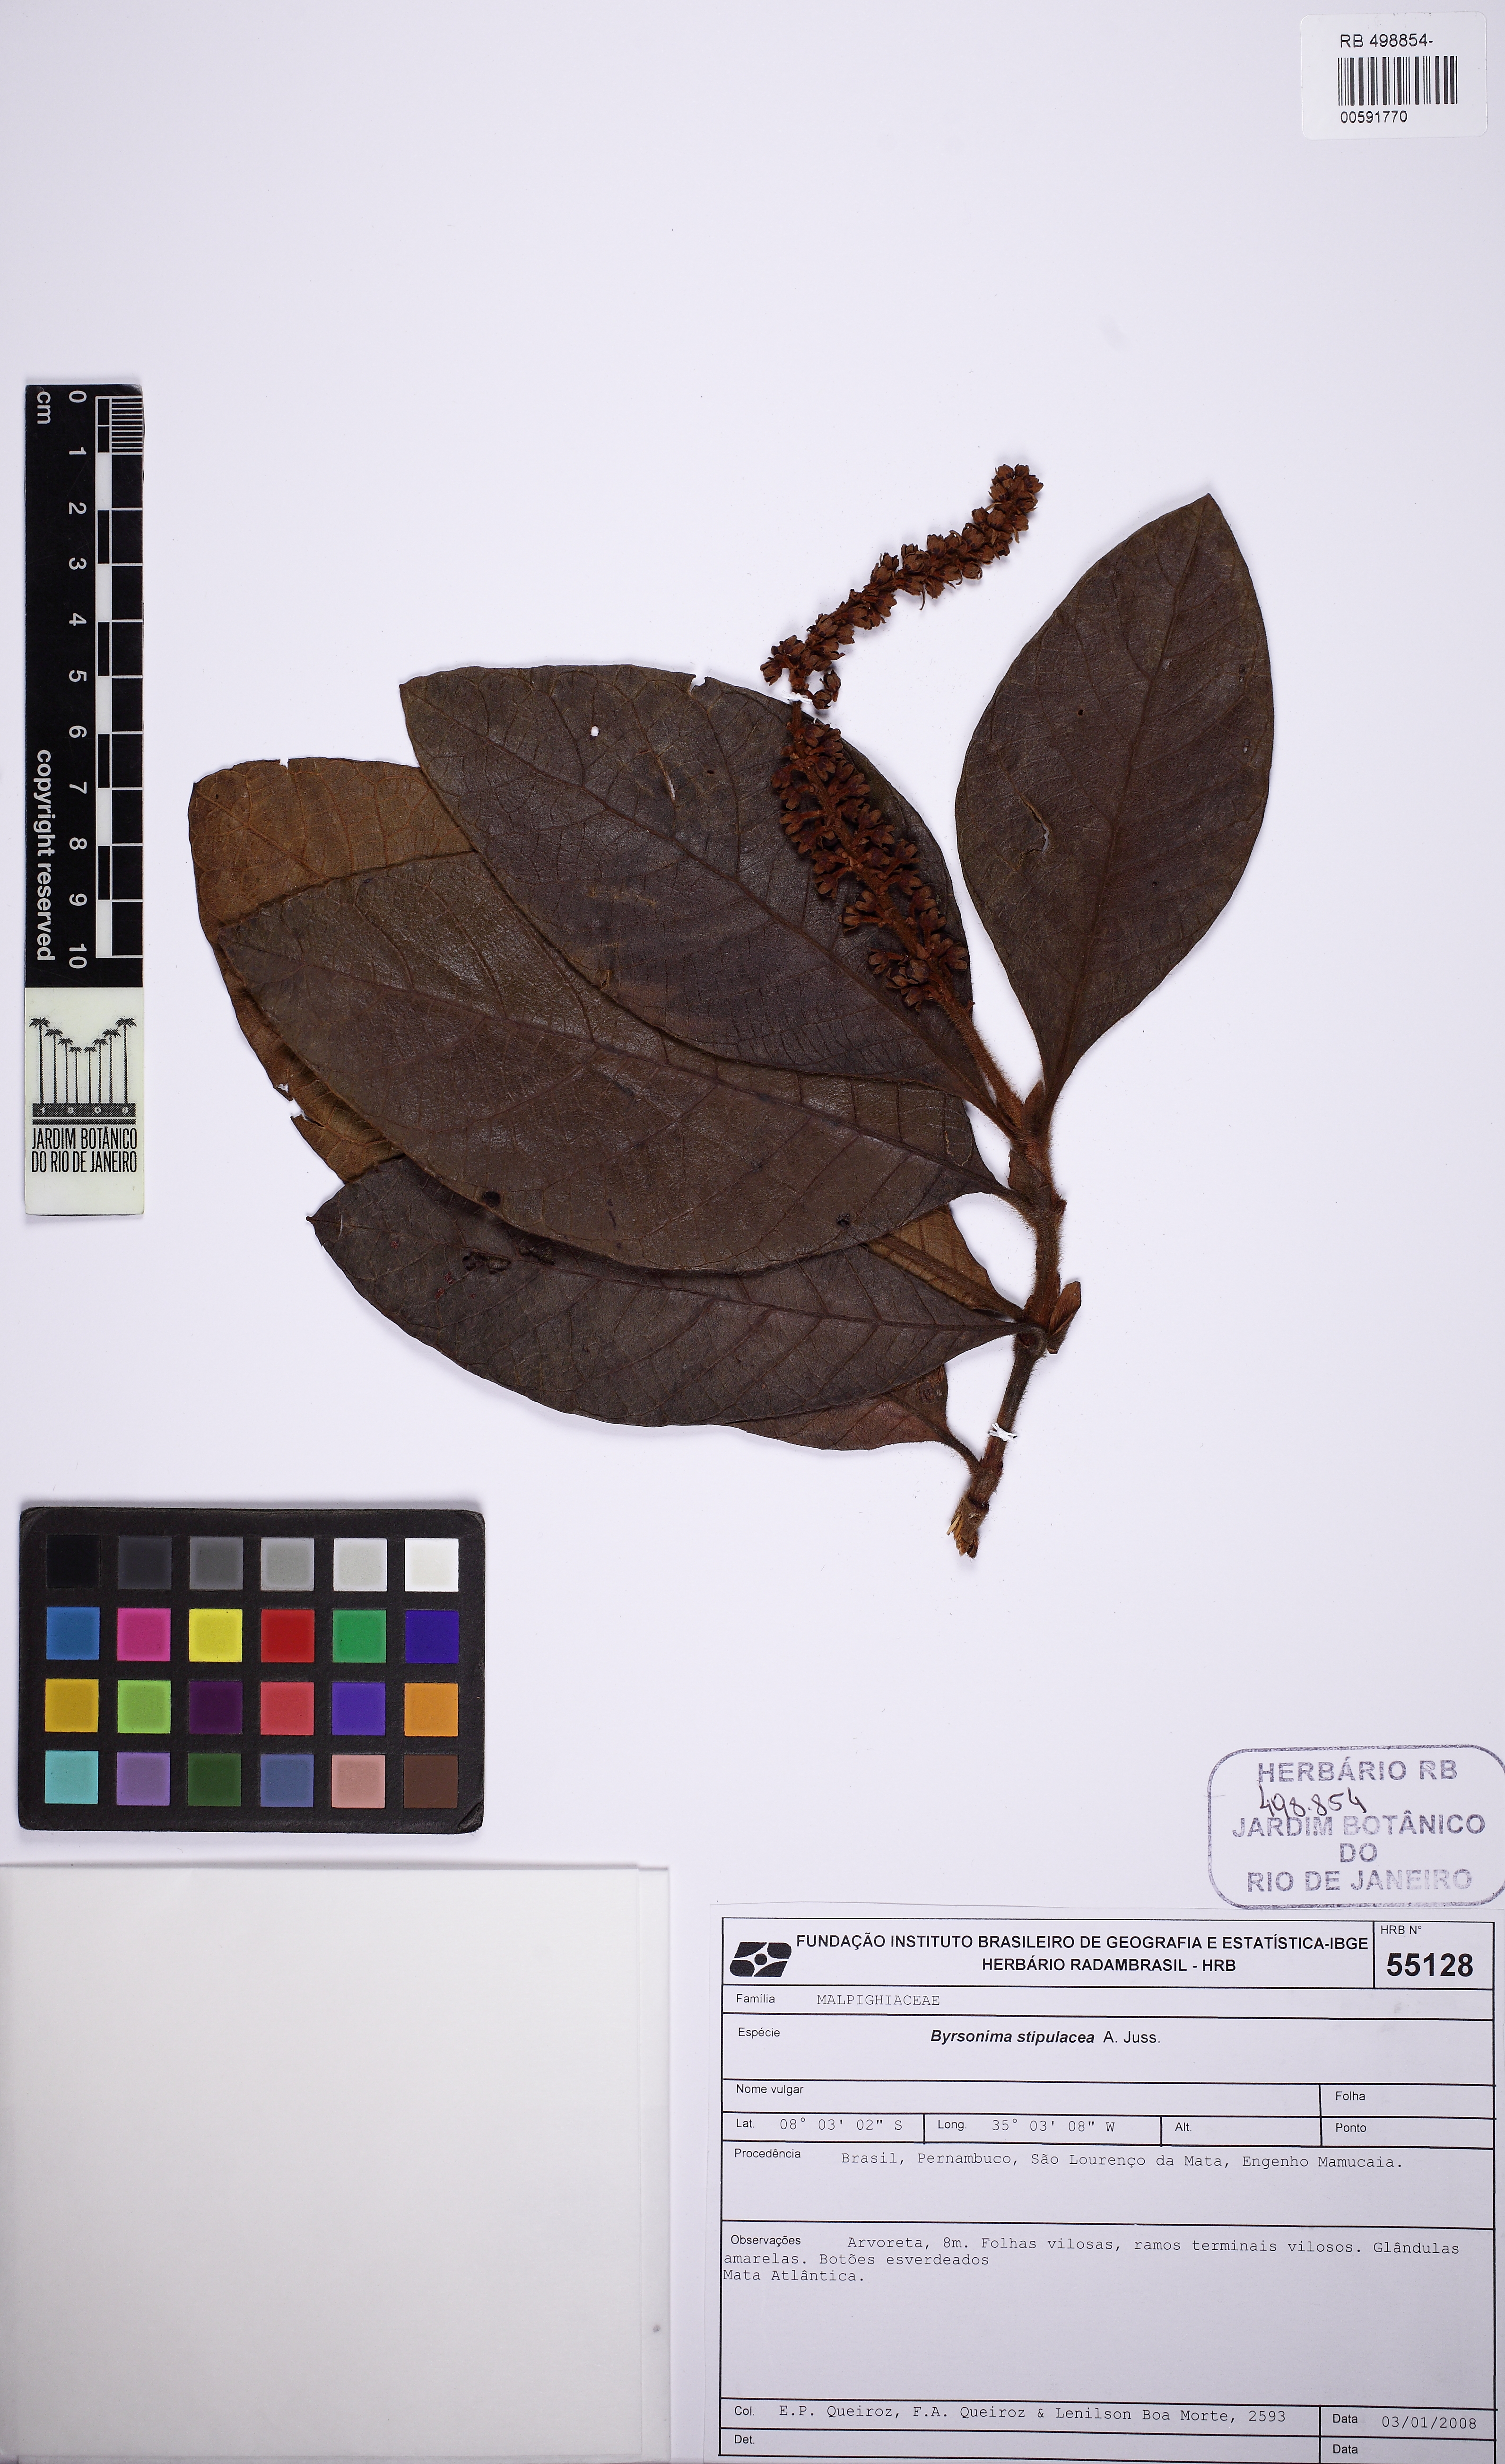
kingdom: Plantae
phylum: Tracheophyta
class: Magnoliopsida
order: Malpighiales
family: Malpighiaceae
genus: Byrsonima
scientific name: Byrsonima stipulacea
